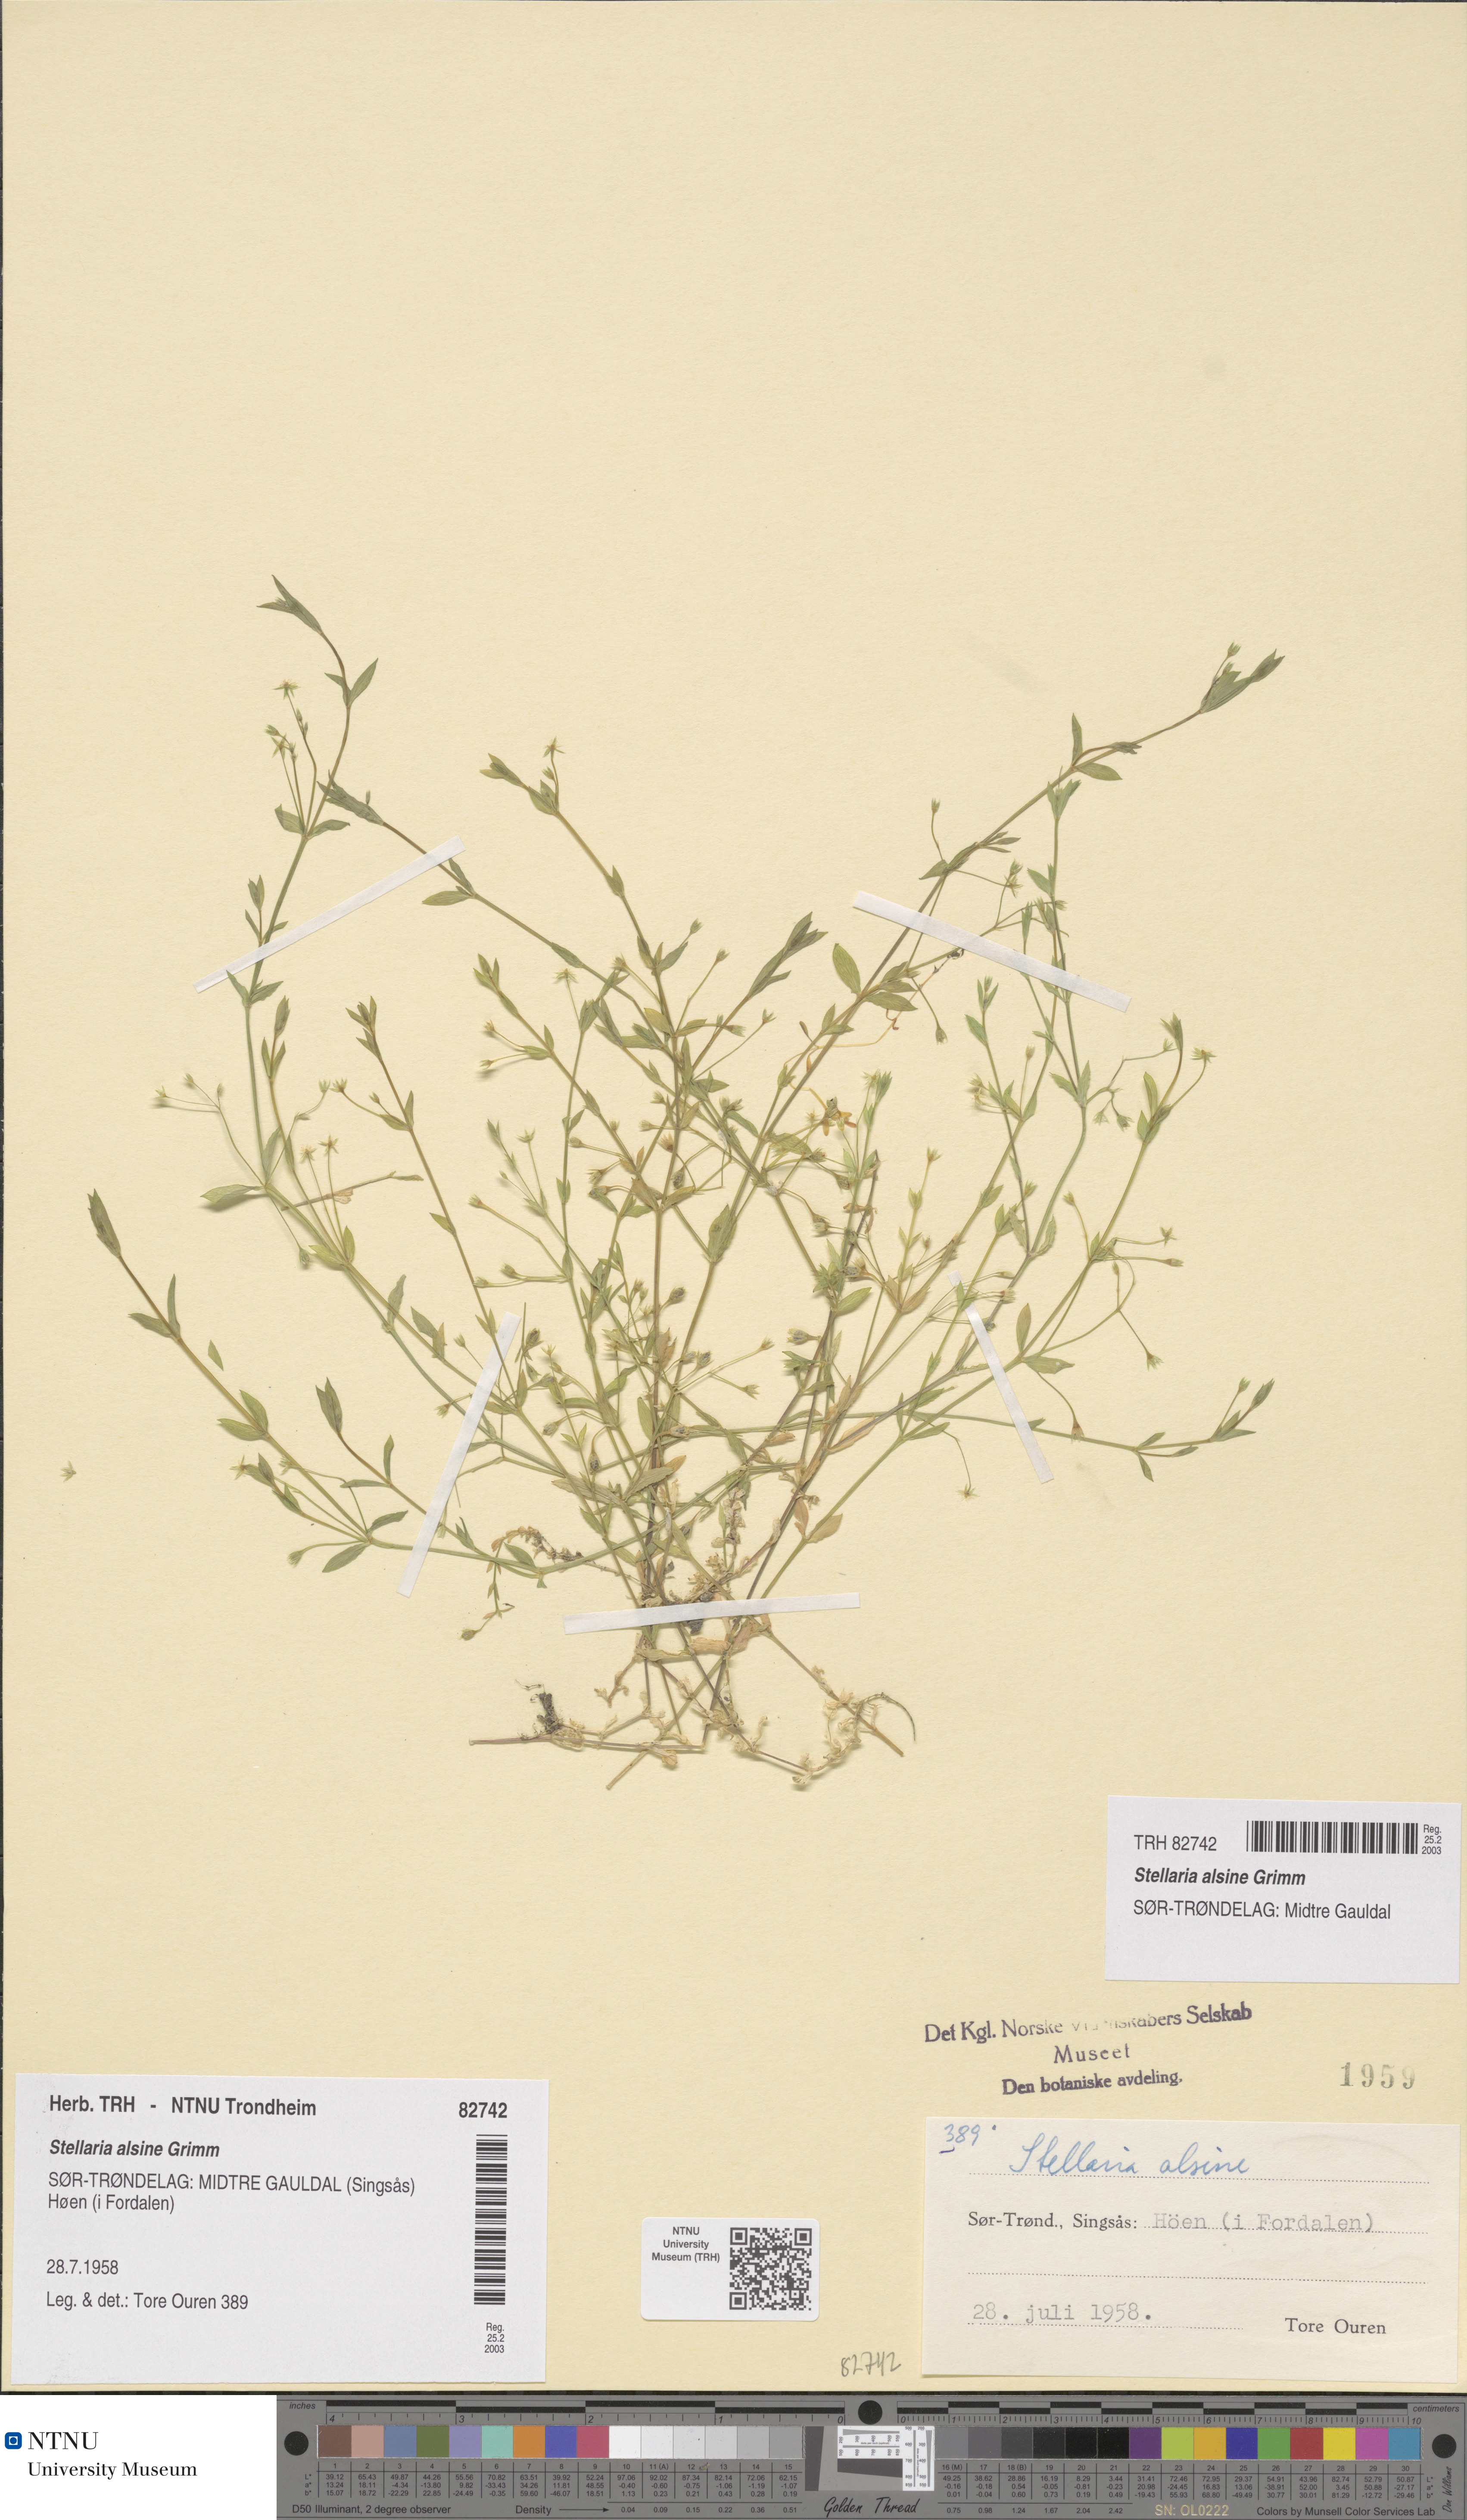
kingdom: Plantae
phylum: Tracheophyta
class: Magnoliopsida
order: Caryophyllales
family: Caryophyllaceae
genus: Stellaria
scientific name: Stellaria alsine
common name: Bog stitchwort
